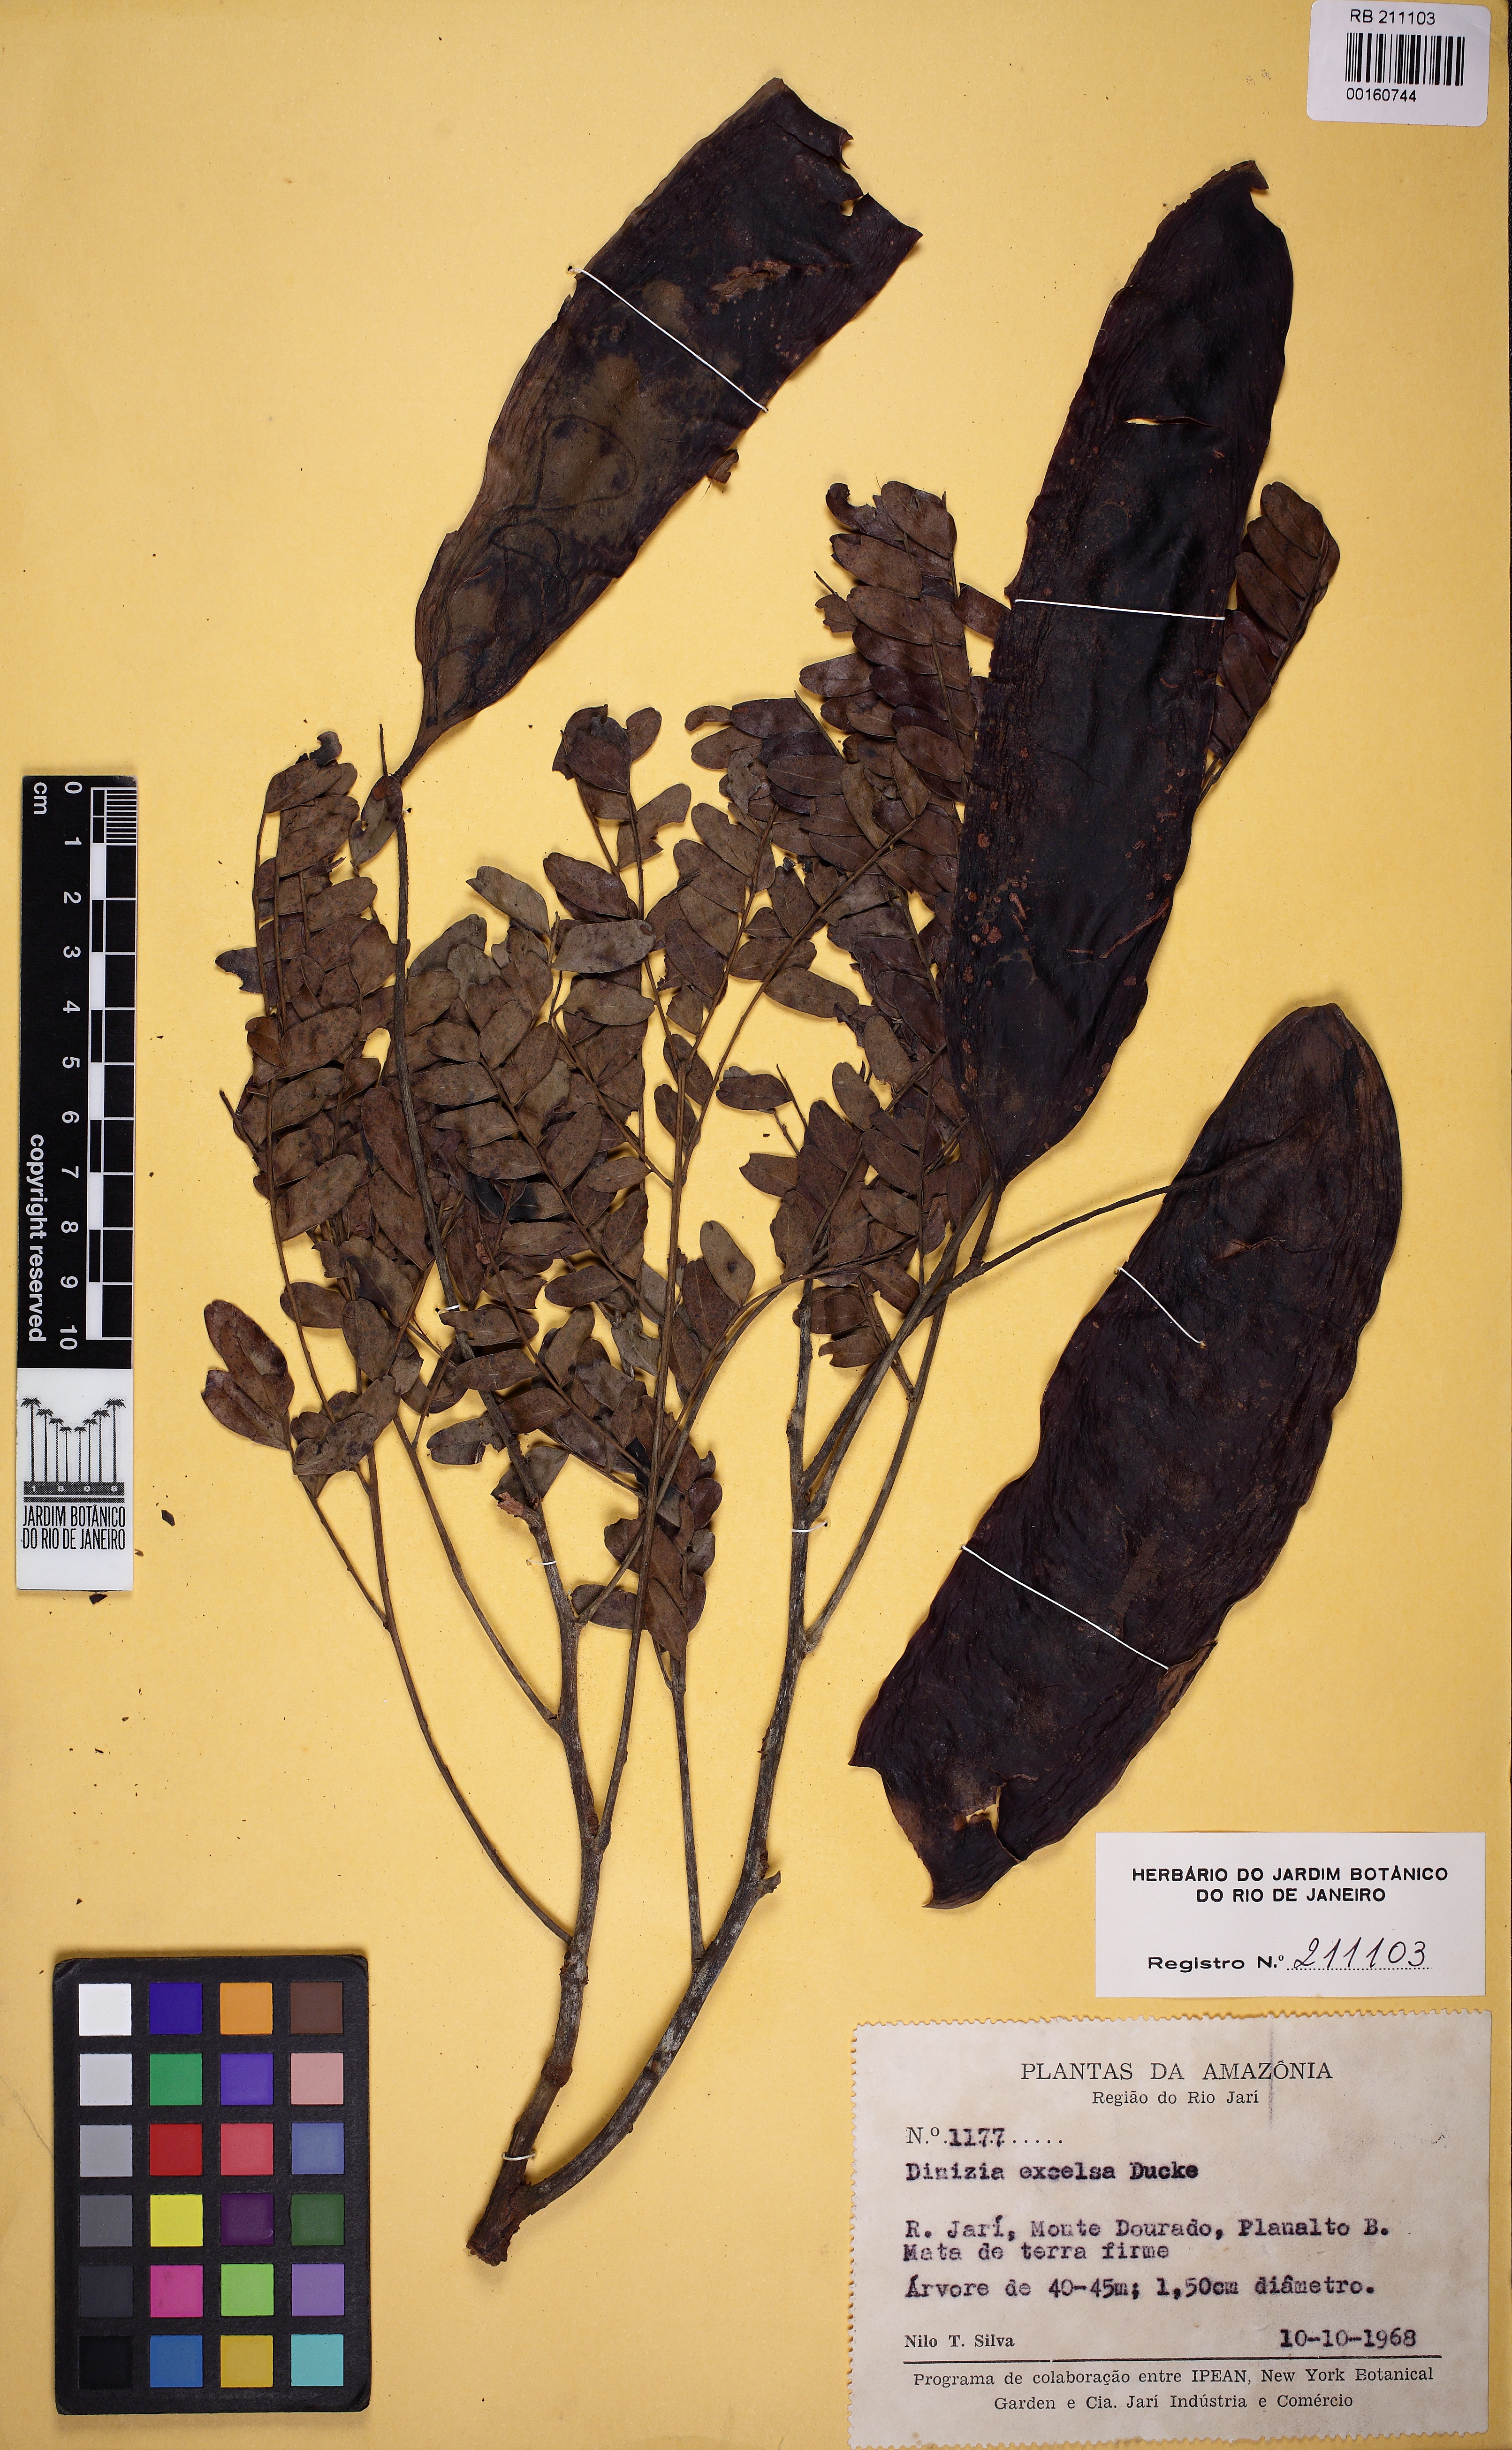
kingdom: Plantae
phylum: Tracheophyta
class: Magnoliopsida
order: Fabales
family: Fabaceae
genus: Dinizia
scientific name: Dinizia excelsa
